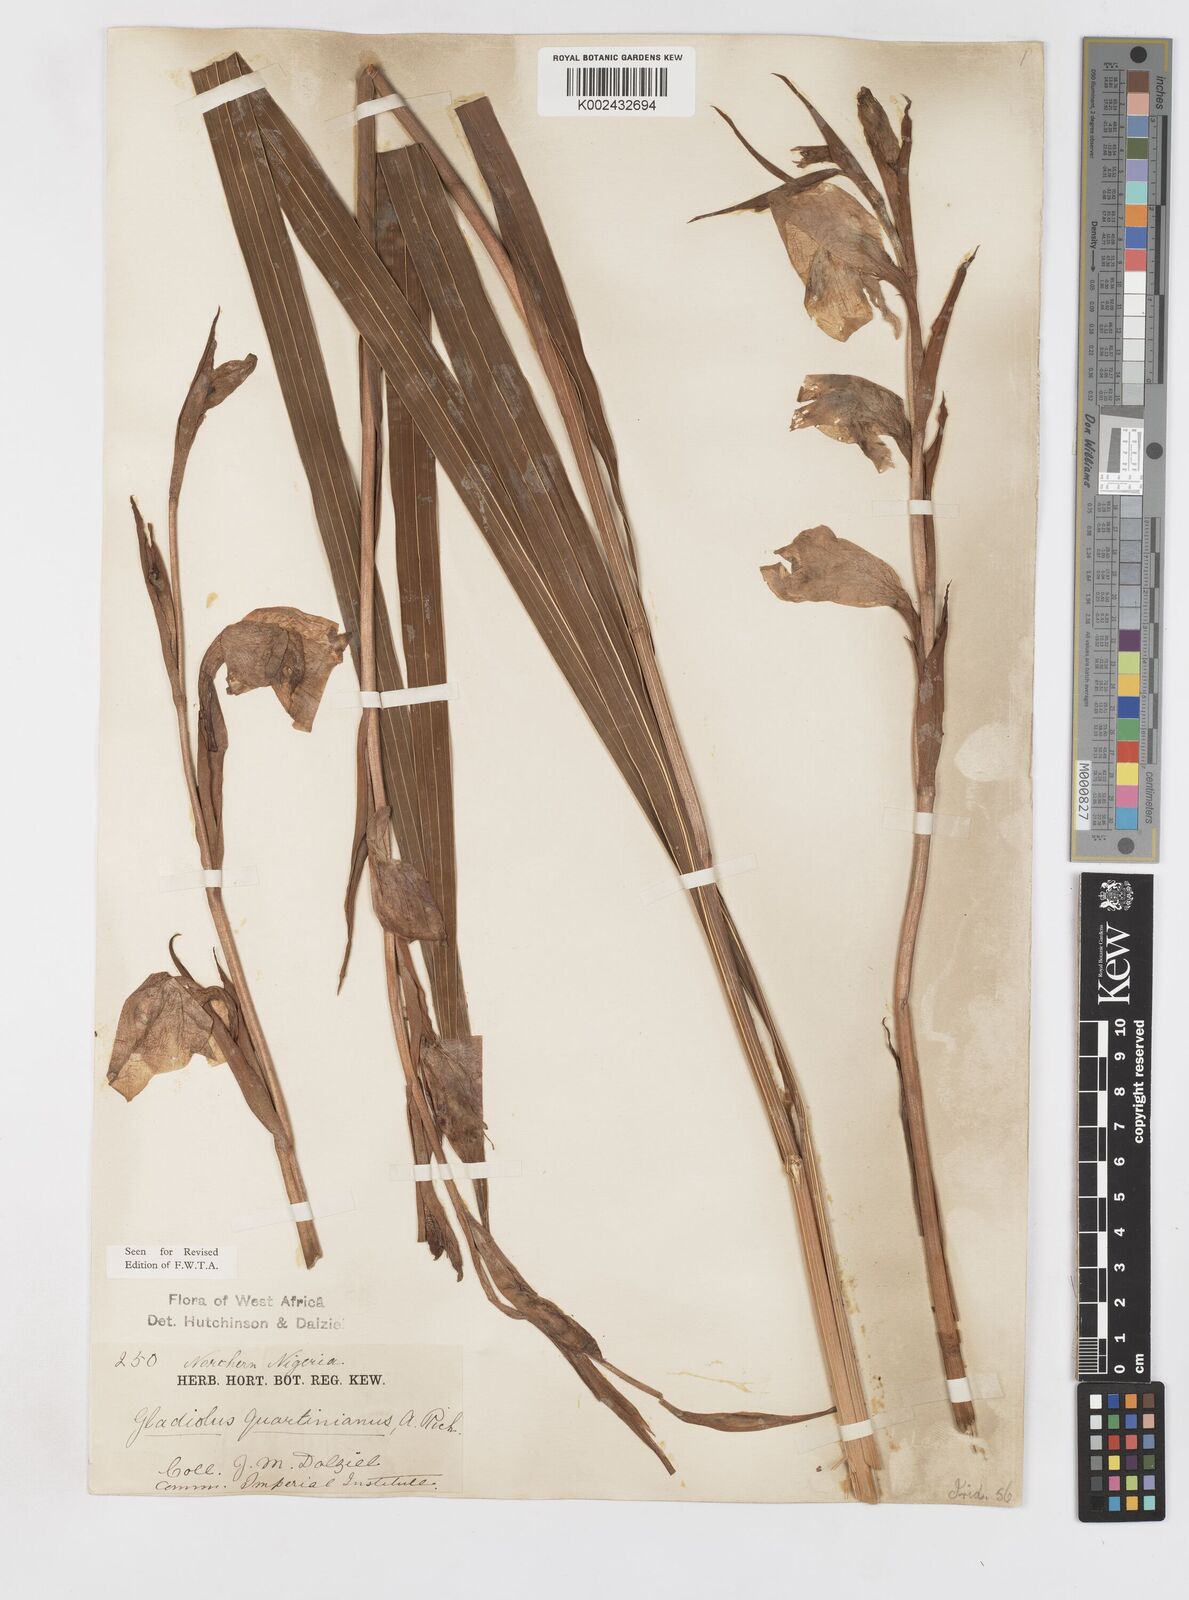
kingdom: Plantae
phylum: Tracheophyta
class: Liliopsida
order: Asparagales
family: Iridaceae
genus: Gladiolus
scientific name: Gladiolus dalenii
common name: Cornflag
